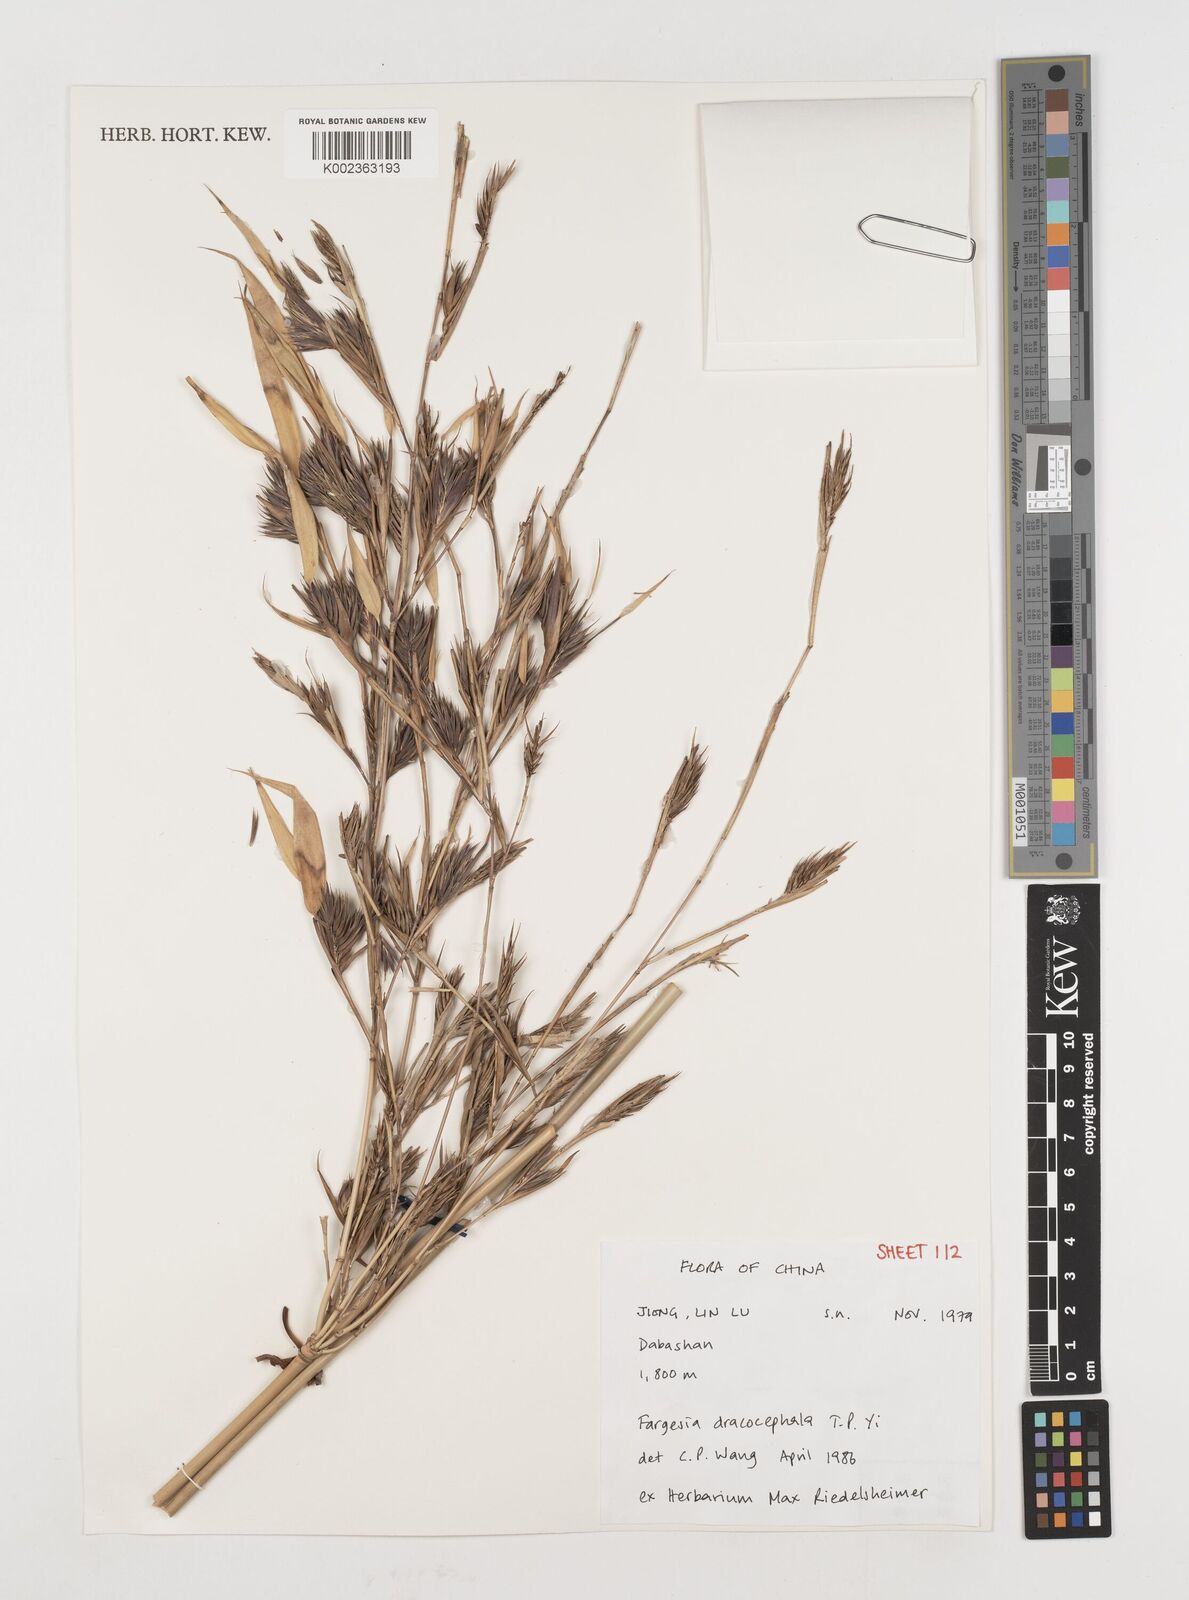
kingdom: Plantae
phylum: Tracheophyta
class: Liliopsida
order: Poales
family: Poaceae
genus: Fargesia
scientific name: Fargesia dracocephala
